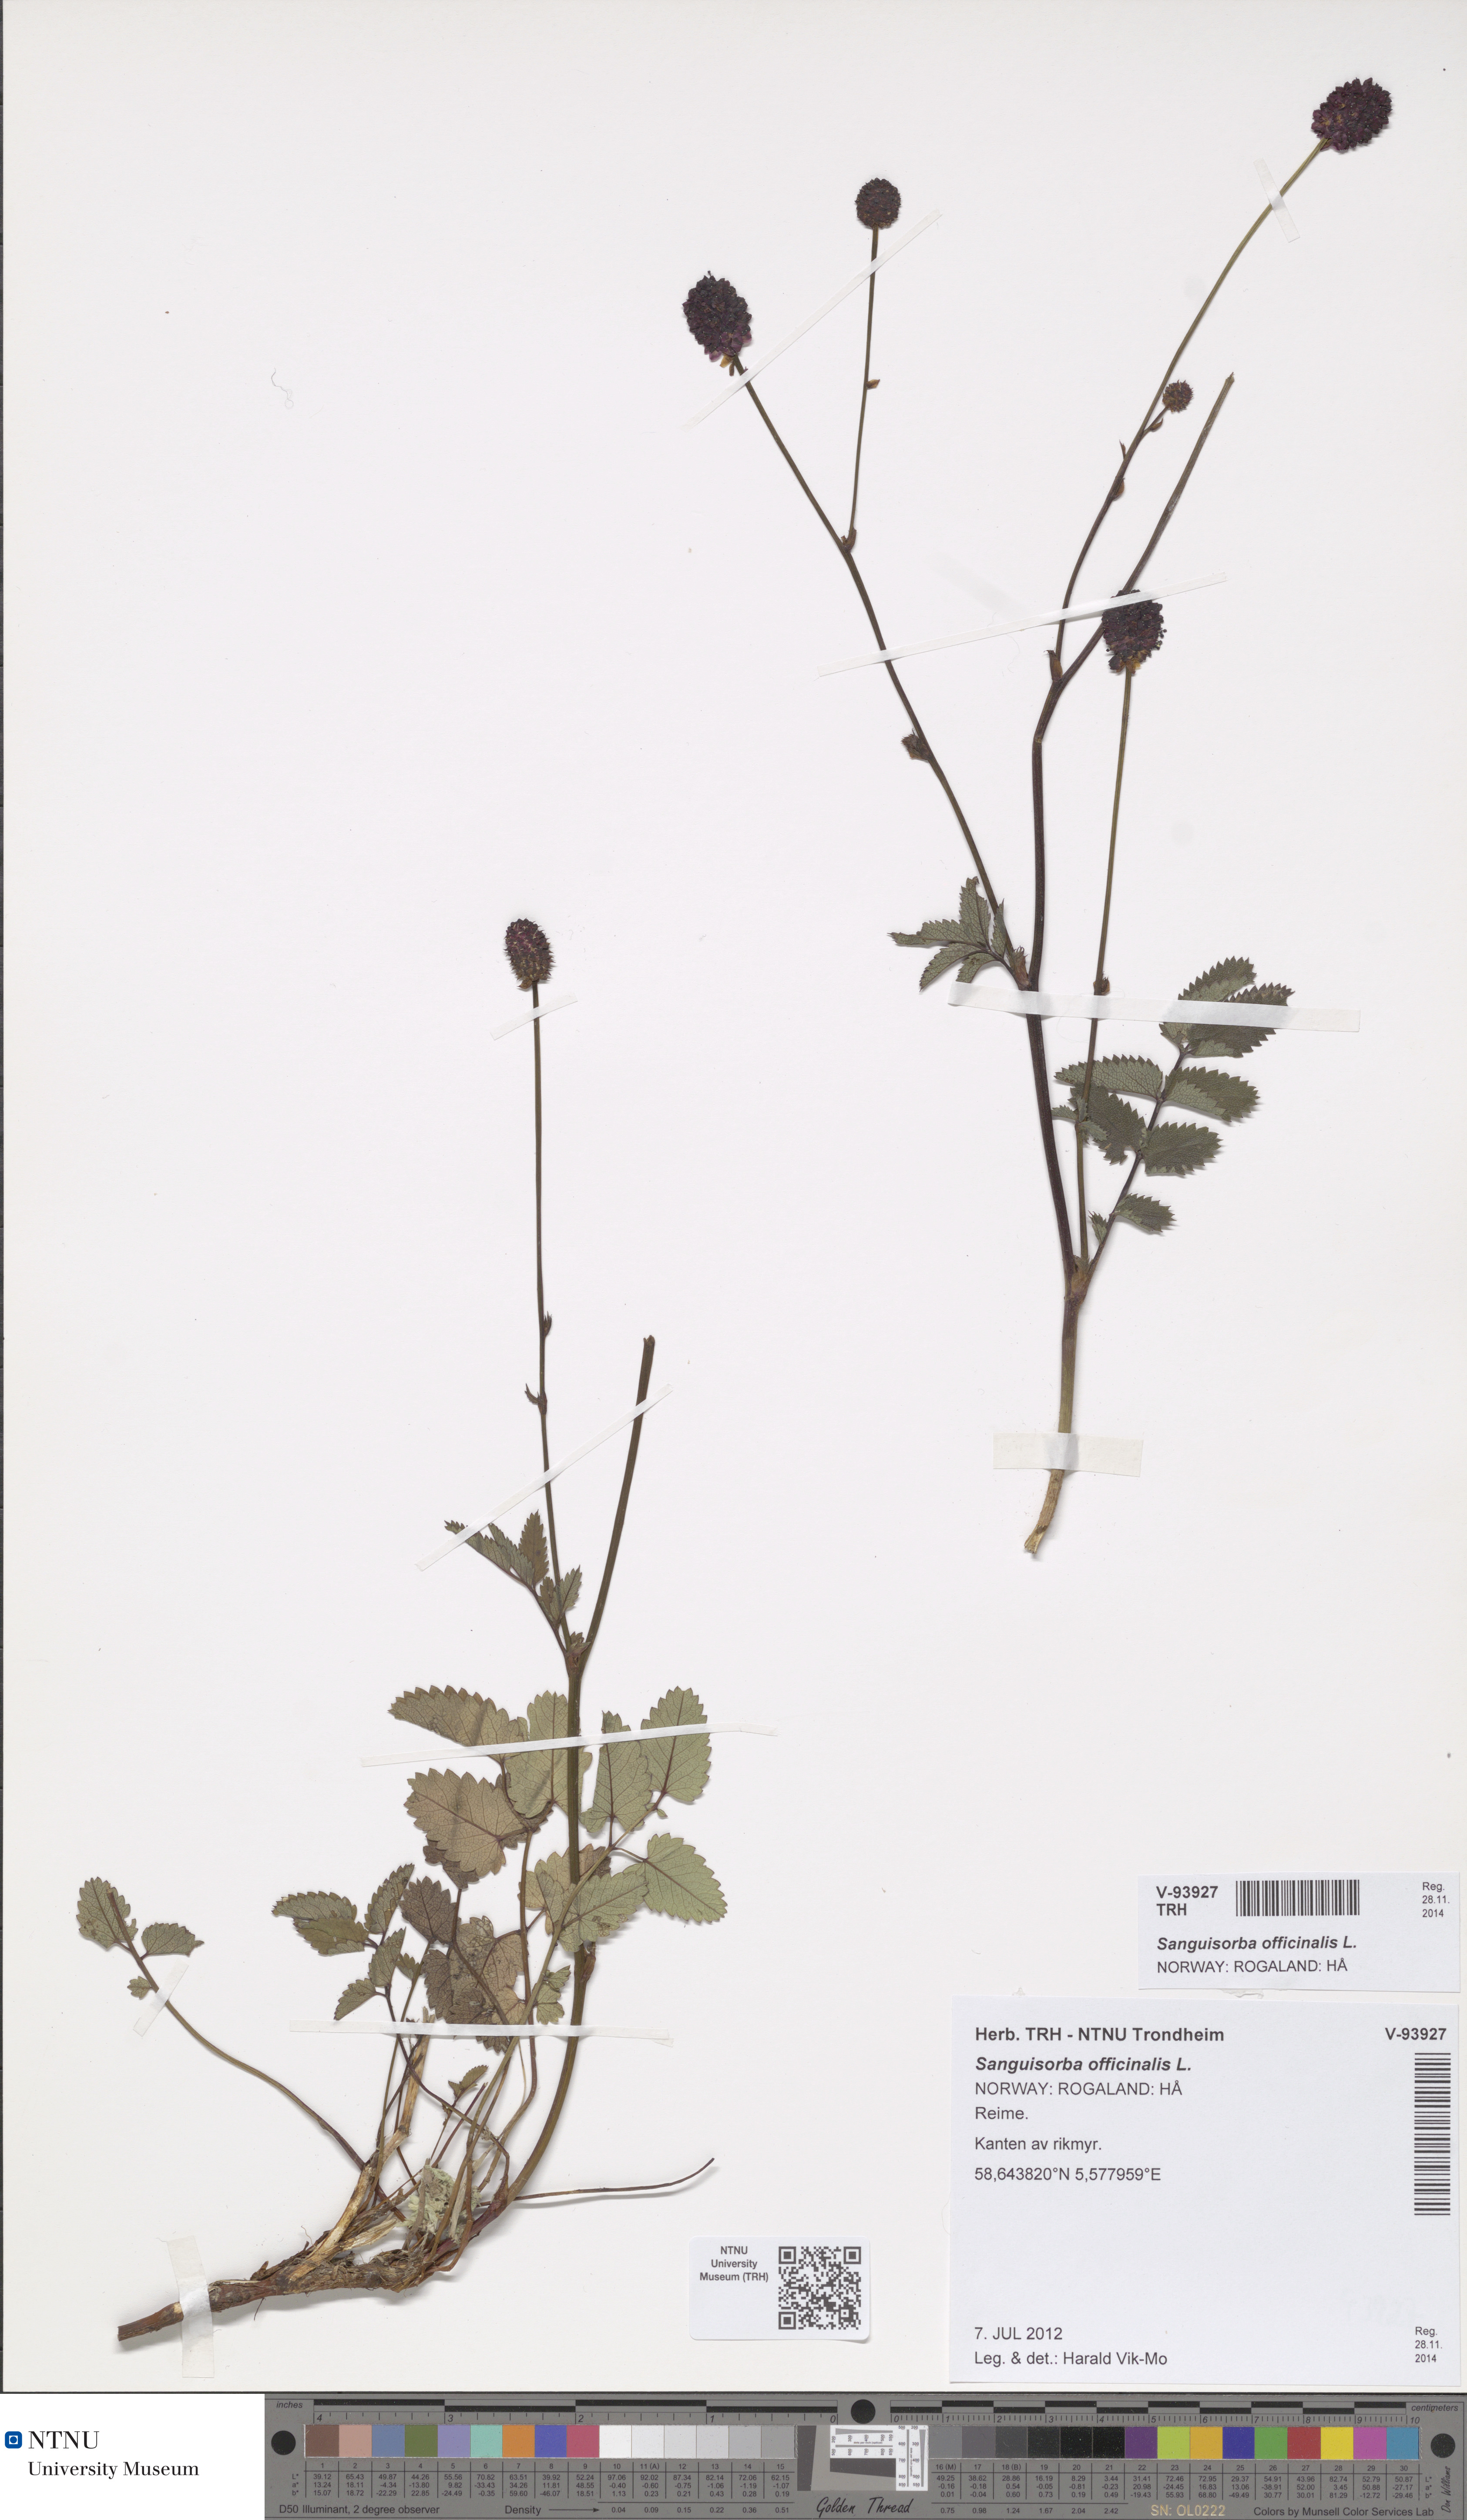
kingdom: Plantae
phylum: Tracheophyta
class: Magnoliopsida
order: Rosales
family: Rosaceae
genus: Sanguisorba
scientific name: Sanguisorba officinalis
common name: Great burnet
